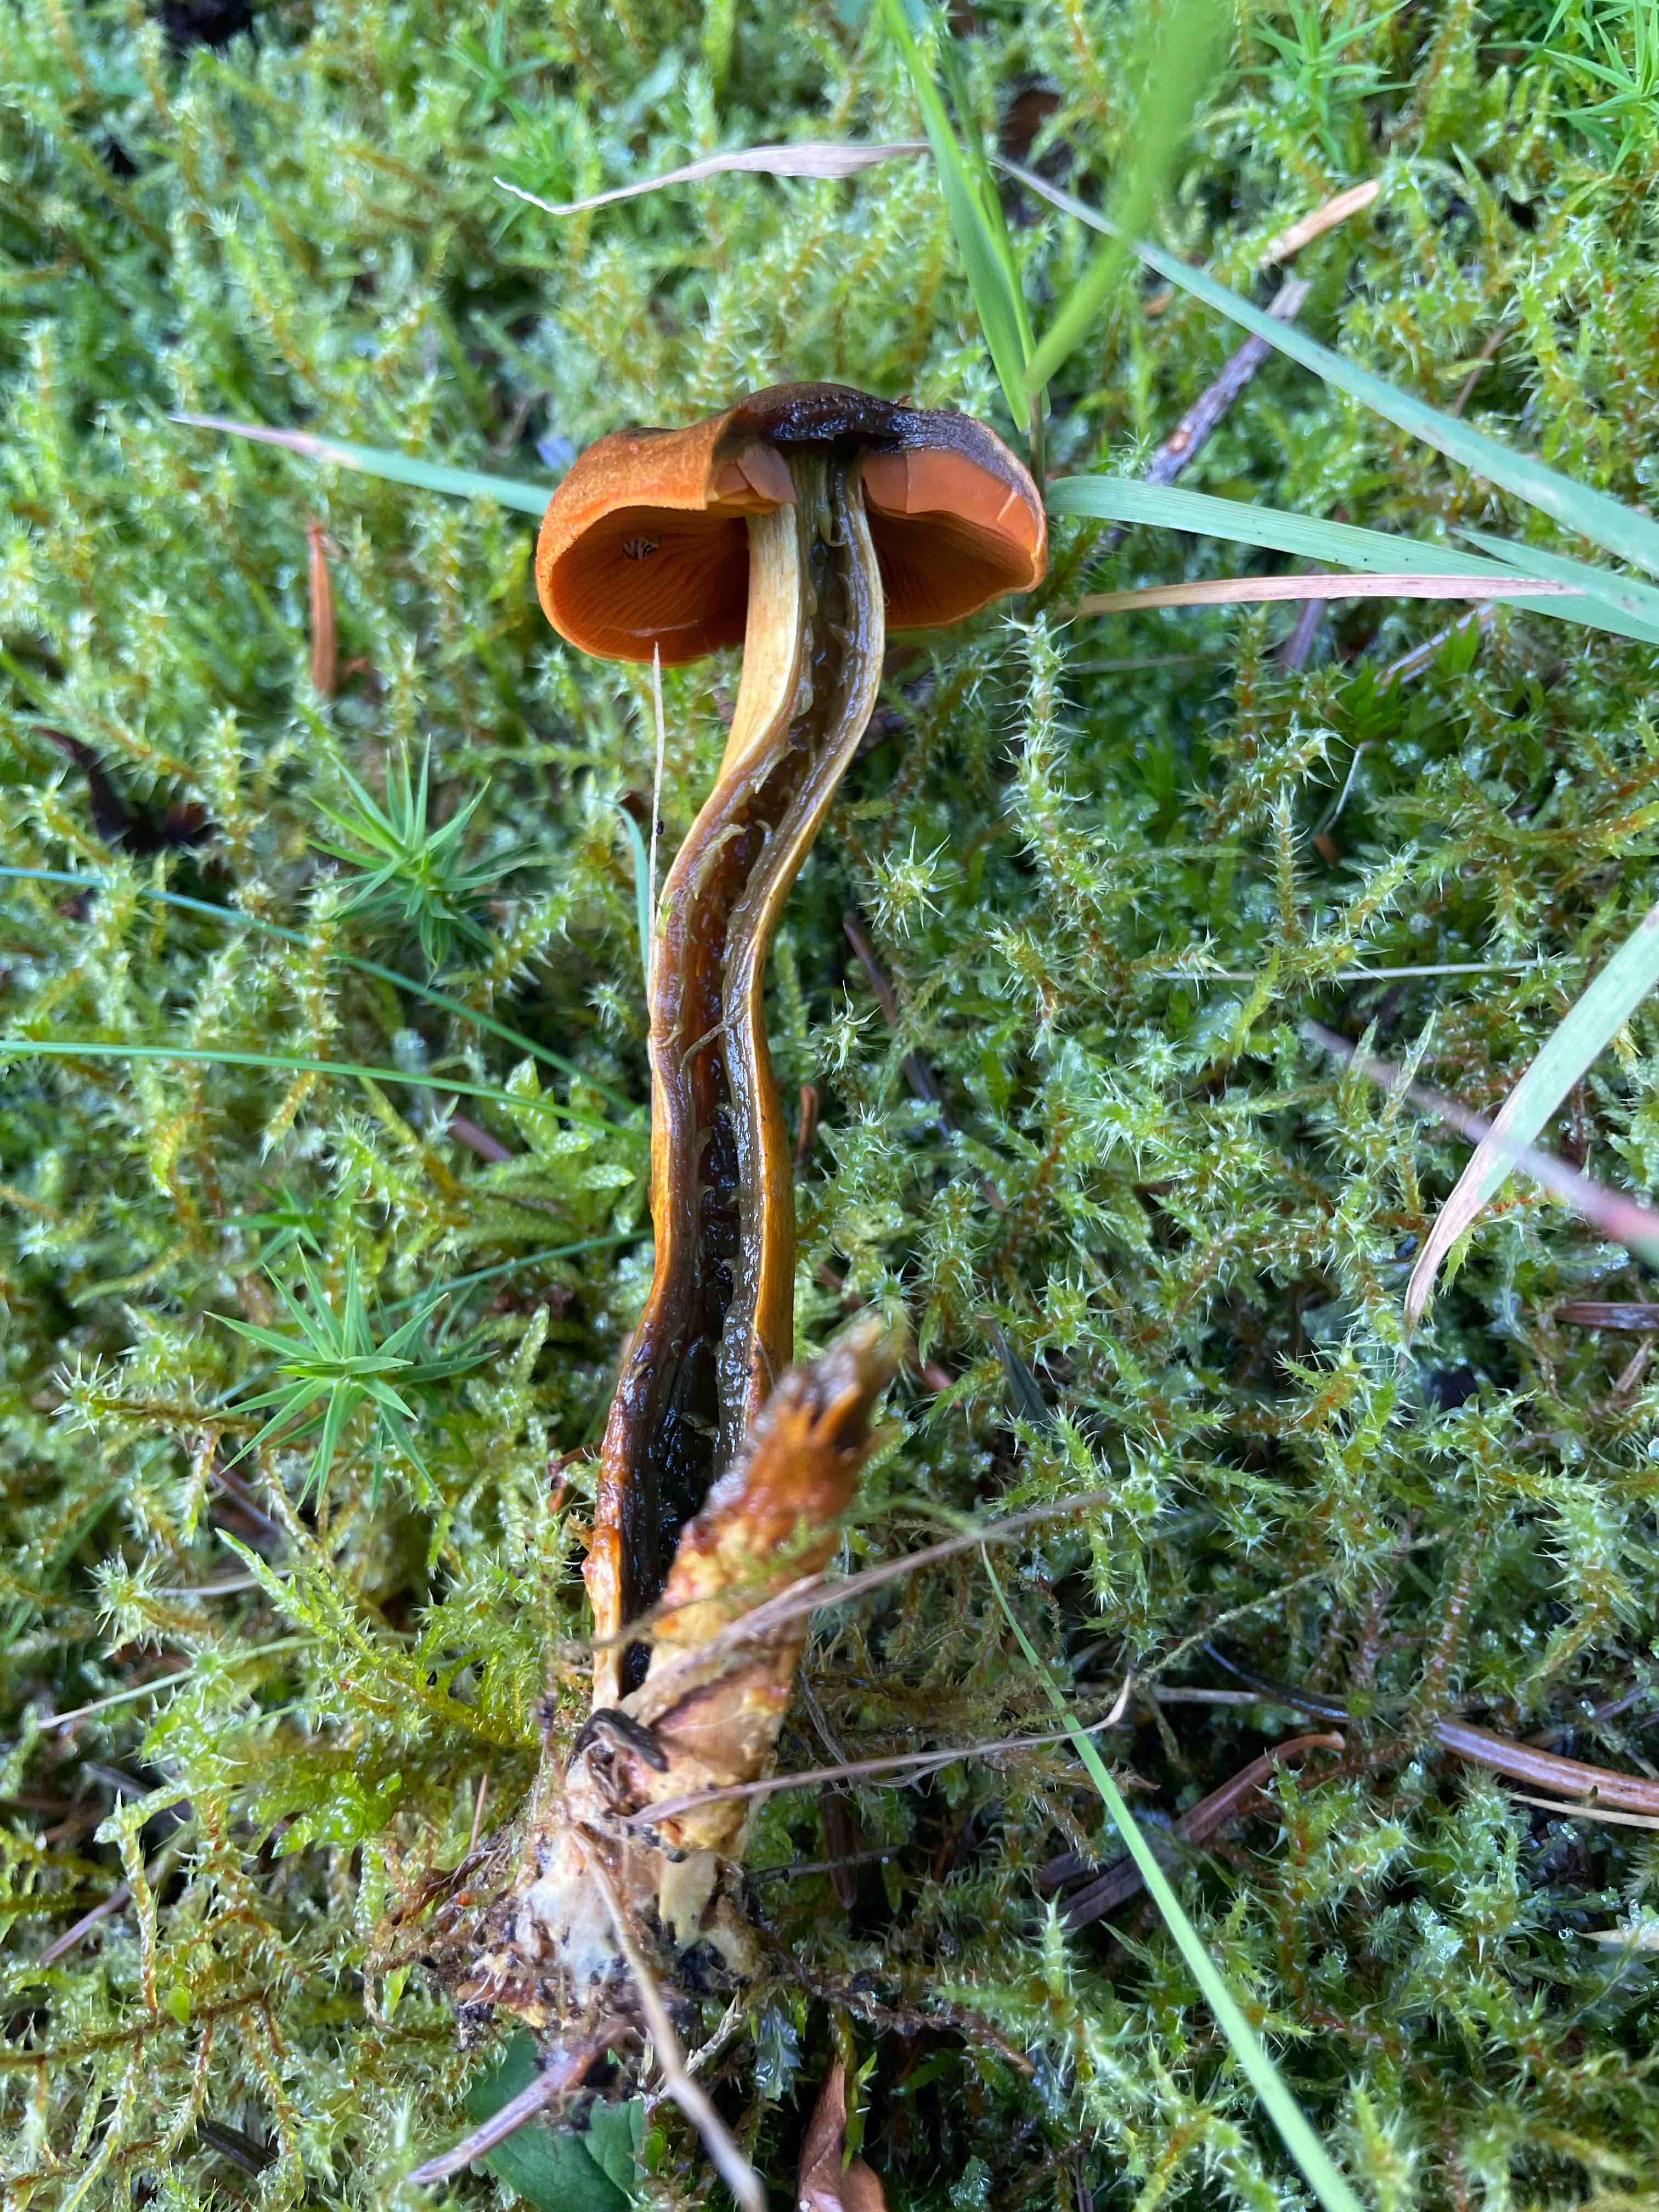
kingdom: Fungi
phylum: Basidiomycota
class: Agaricomycetes
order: Agaricales
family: Cortinariaceae
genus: Cortinarius
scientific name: Cortinarius malicorius
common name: grønkødet slørhat
